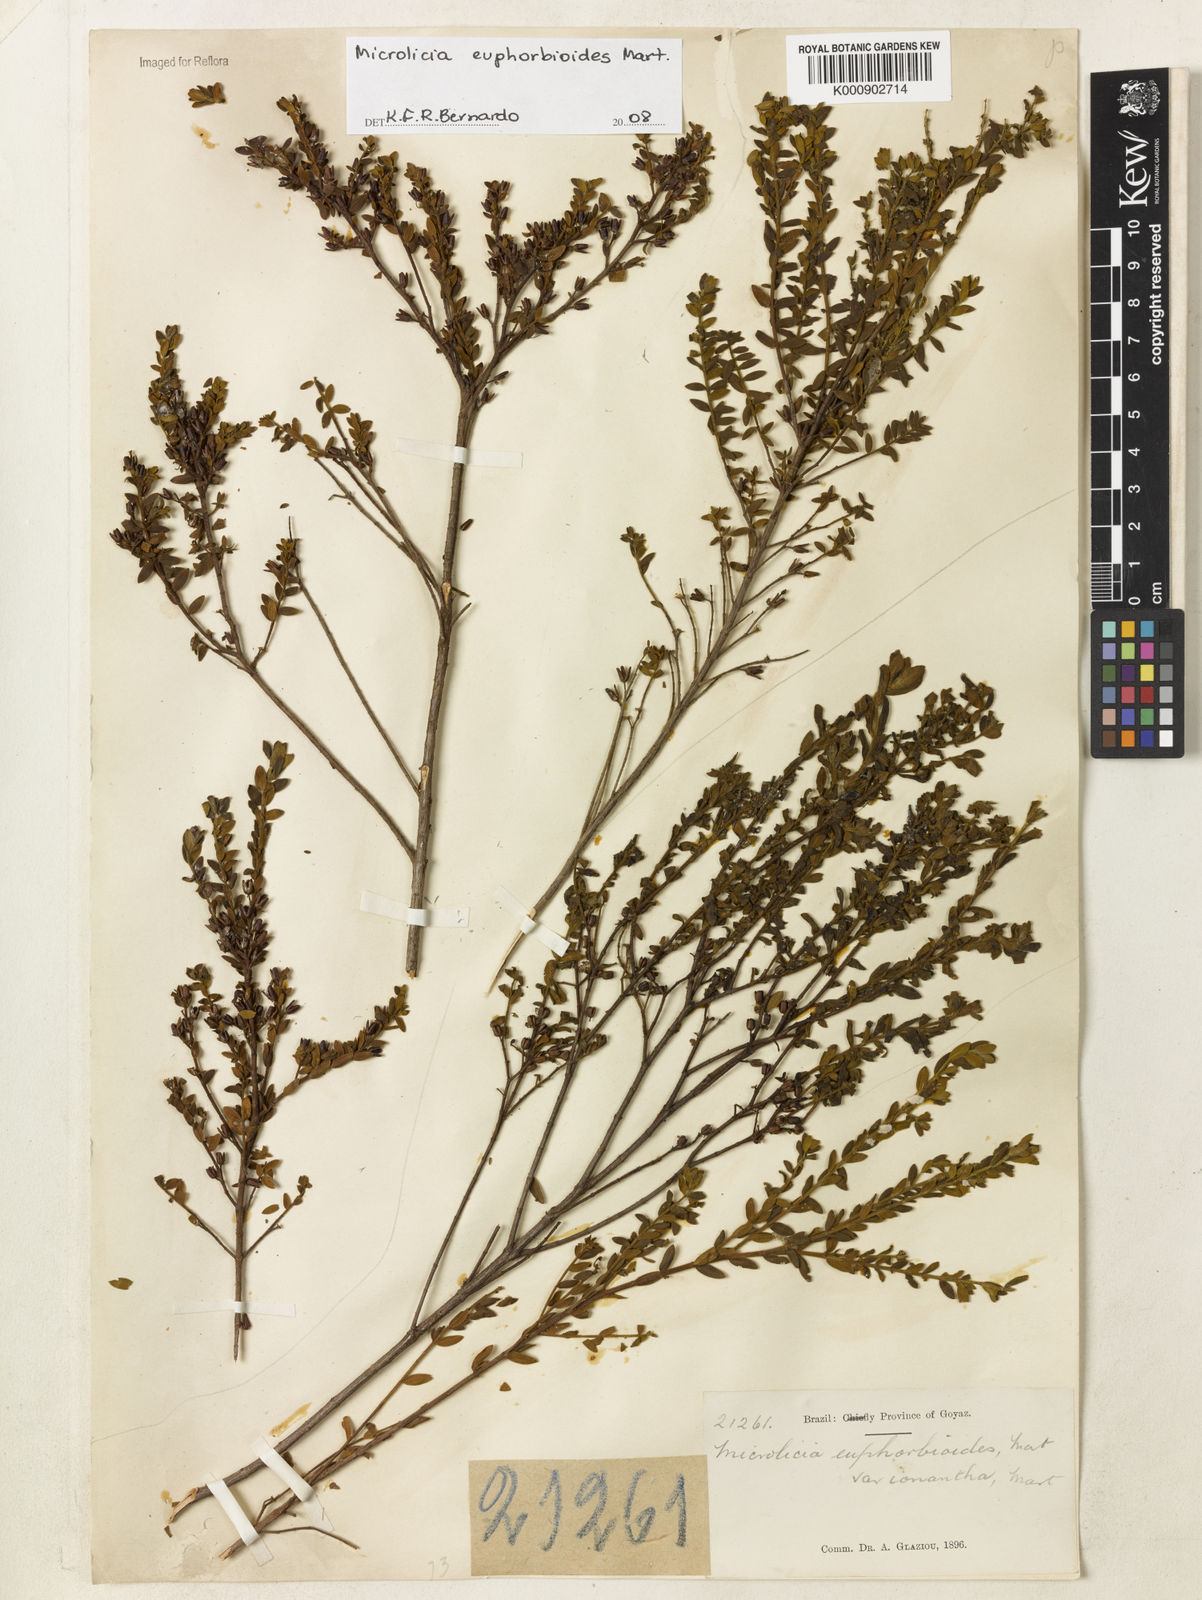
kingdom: Plantae
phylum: Tracheophyta
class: Magnoliopsida
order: Myrtales
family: Melastomataceae
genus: Microlicia
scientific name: Microlicia euphorbioides
